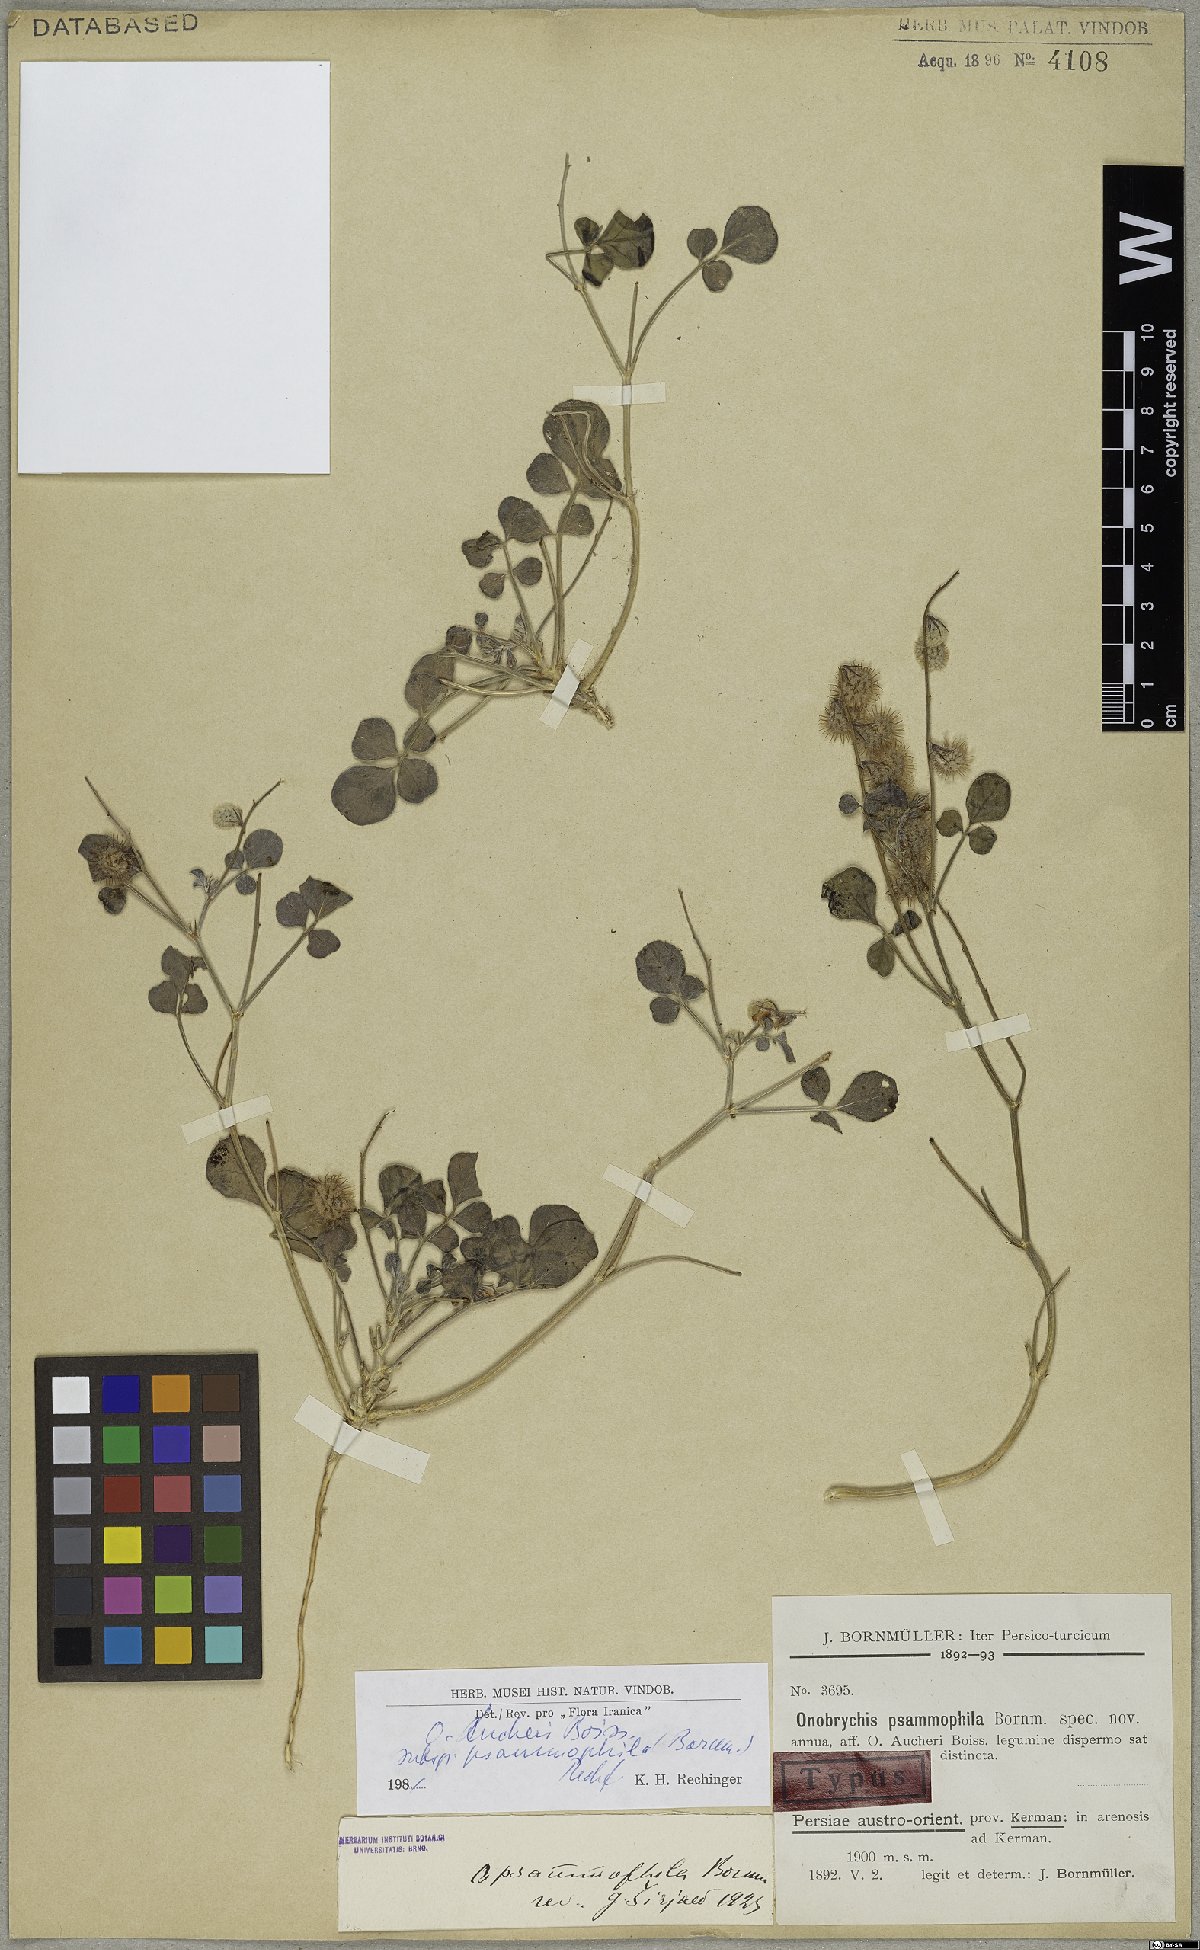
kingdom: Plantae
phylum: Tracheophyta
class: Magnoliopsida
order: Fabales
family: Fabaceae
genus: Onobrychis
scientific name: Onobrychis aucheri
